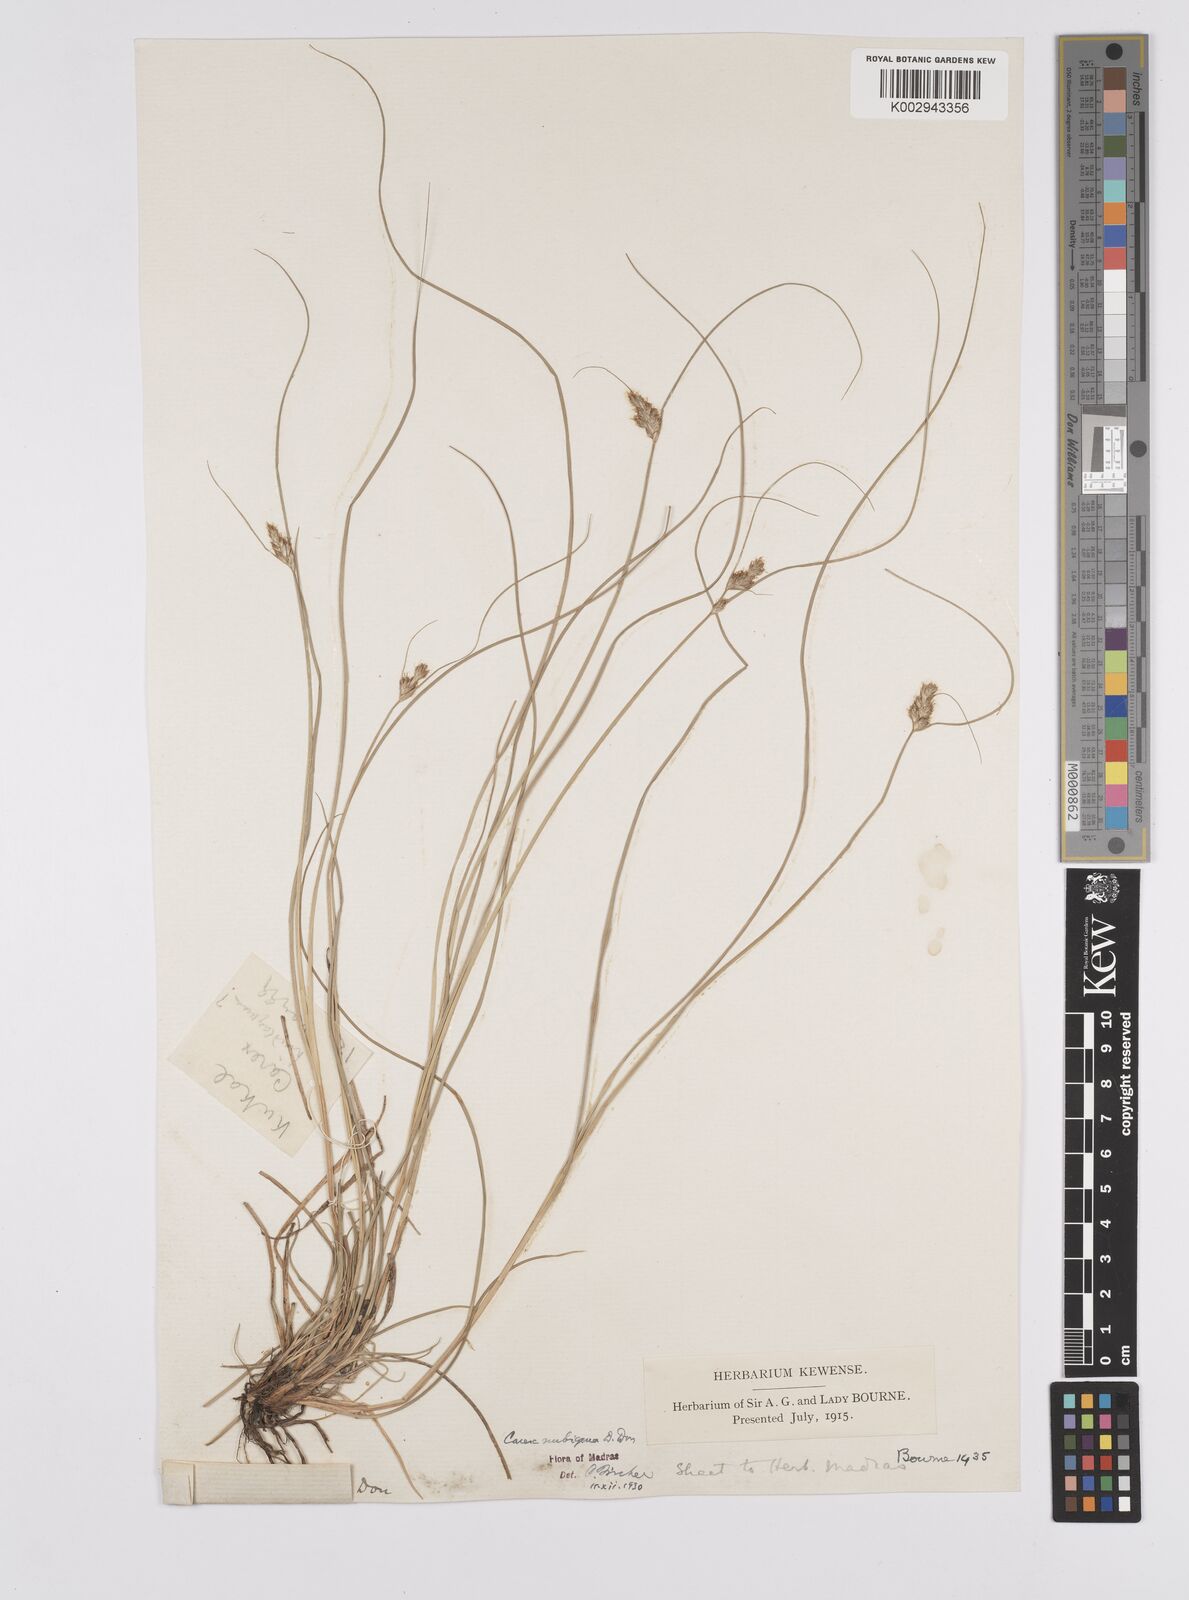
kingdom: Plantae
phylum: Tracheophyta
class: Liliopsida
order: Poales
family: Cyperaceae
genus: Carex
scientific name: Carex nubigena
